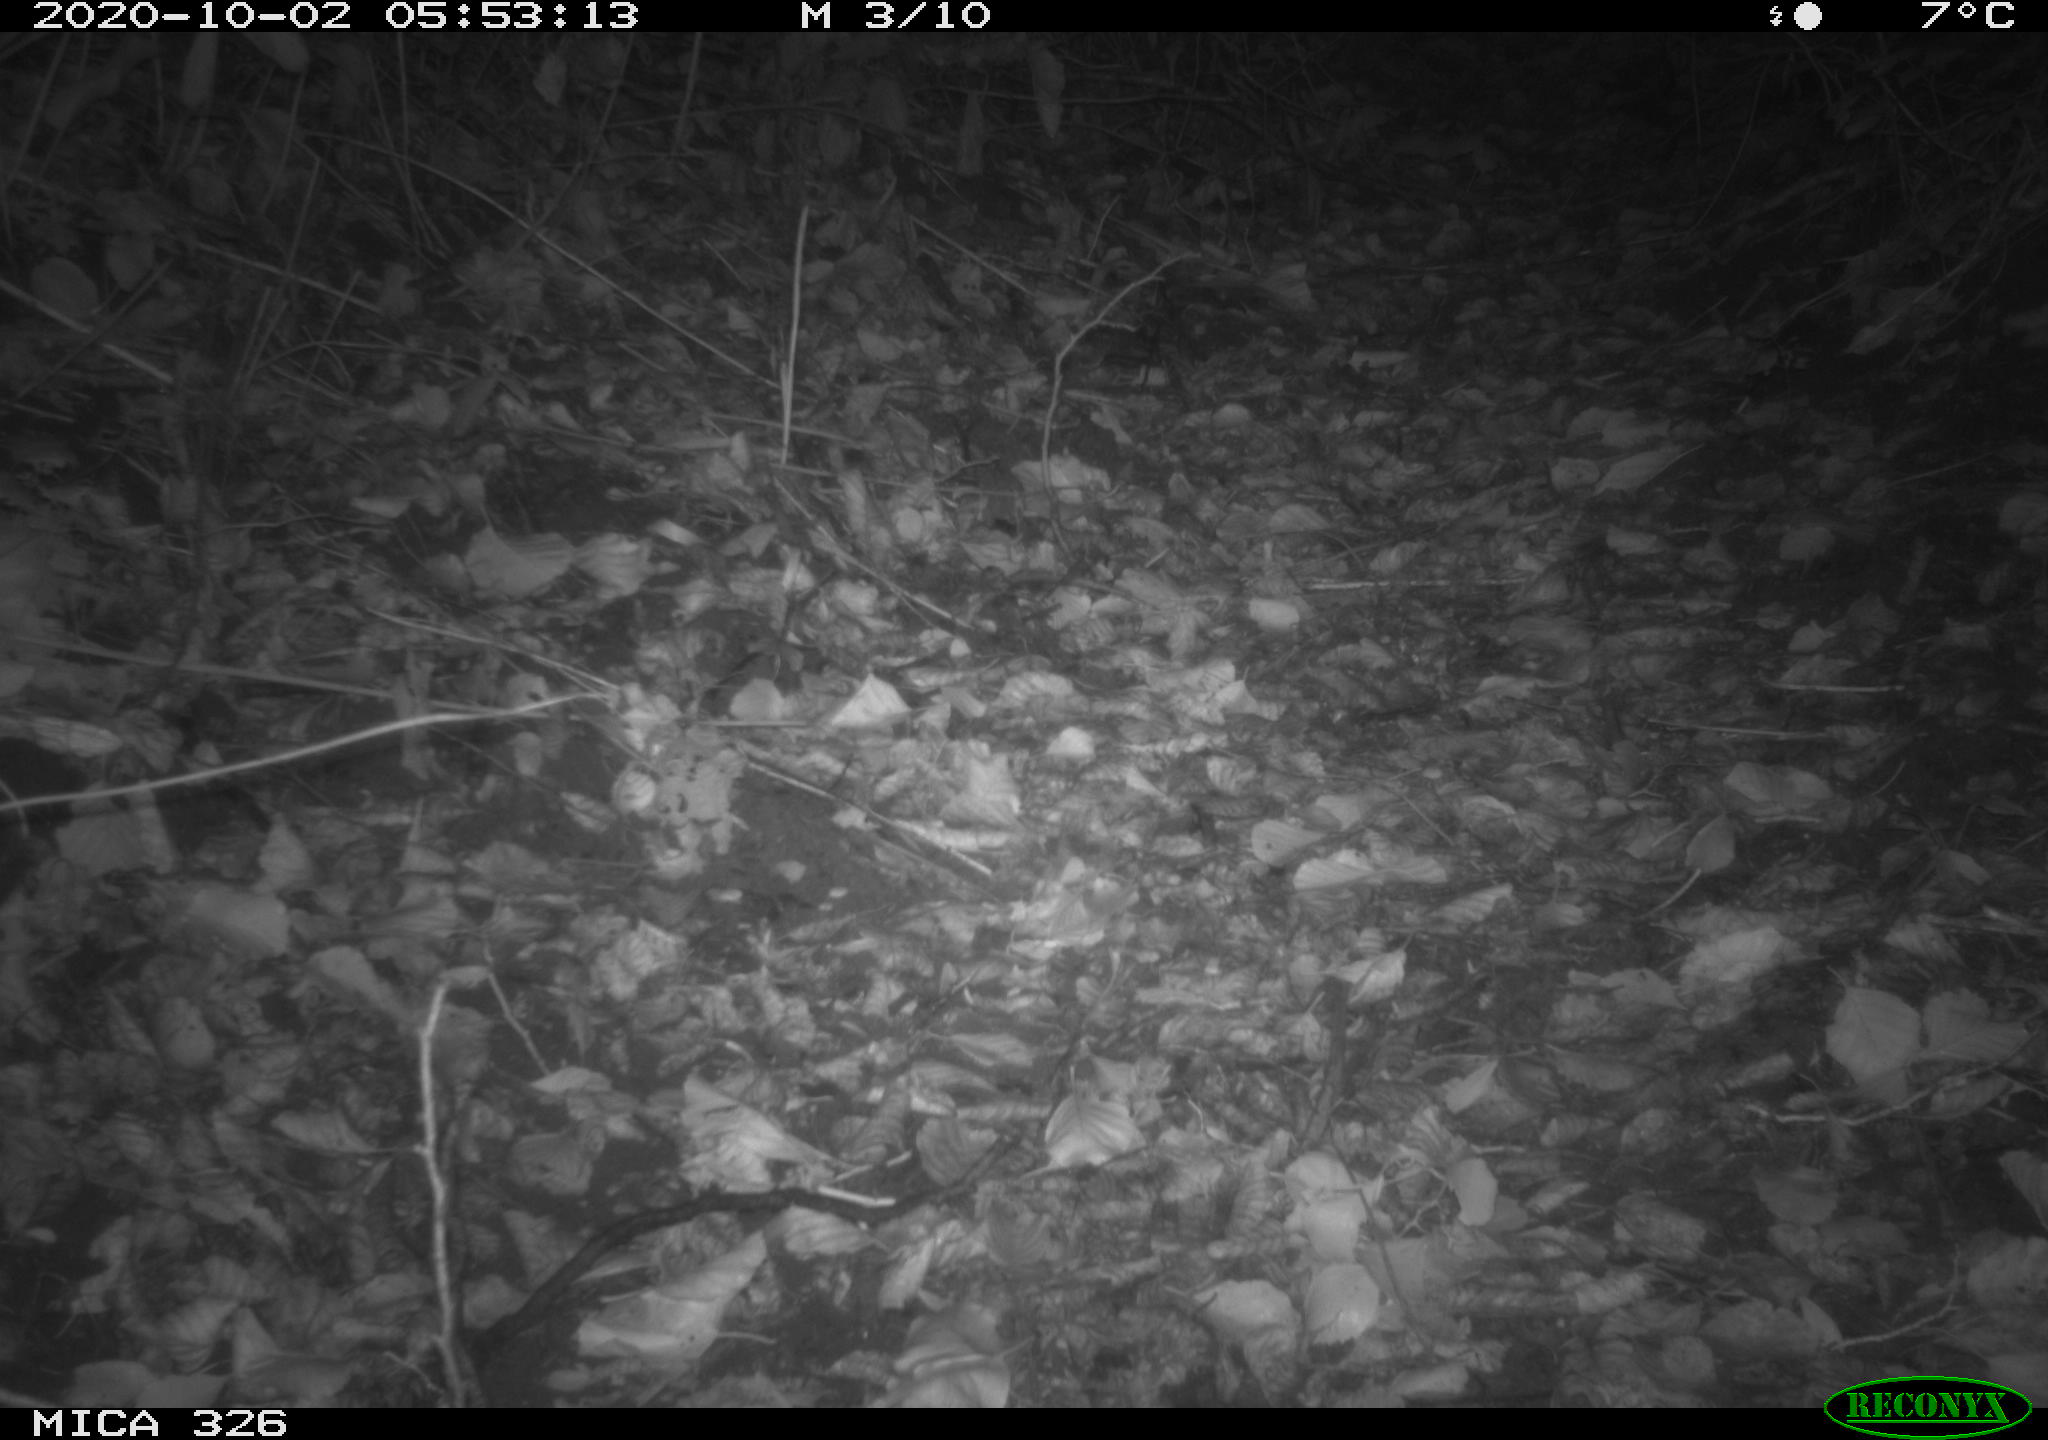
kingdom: Animalia
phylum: Chordata
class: Mammalia
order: Rodentia
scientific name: Rodentia
